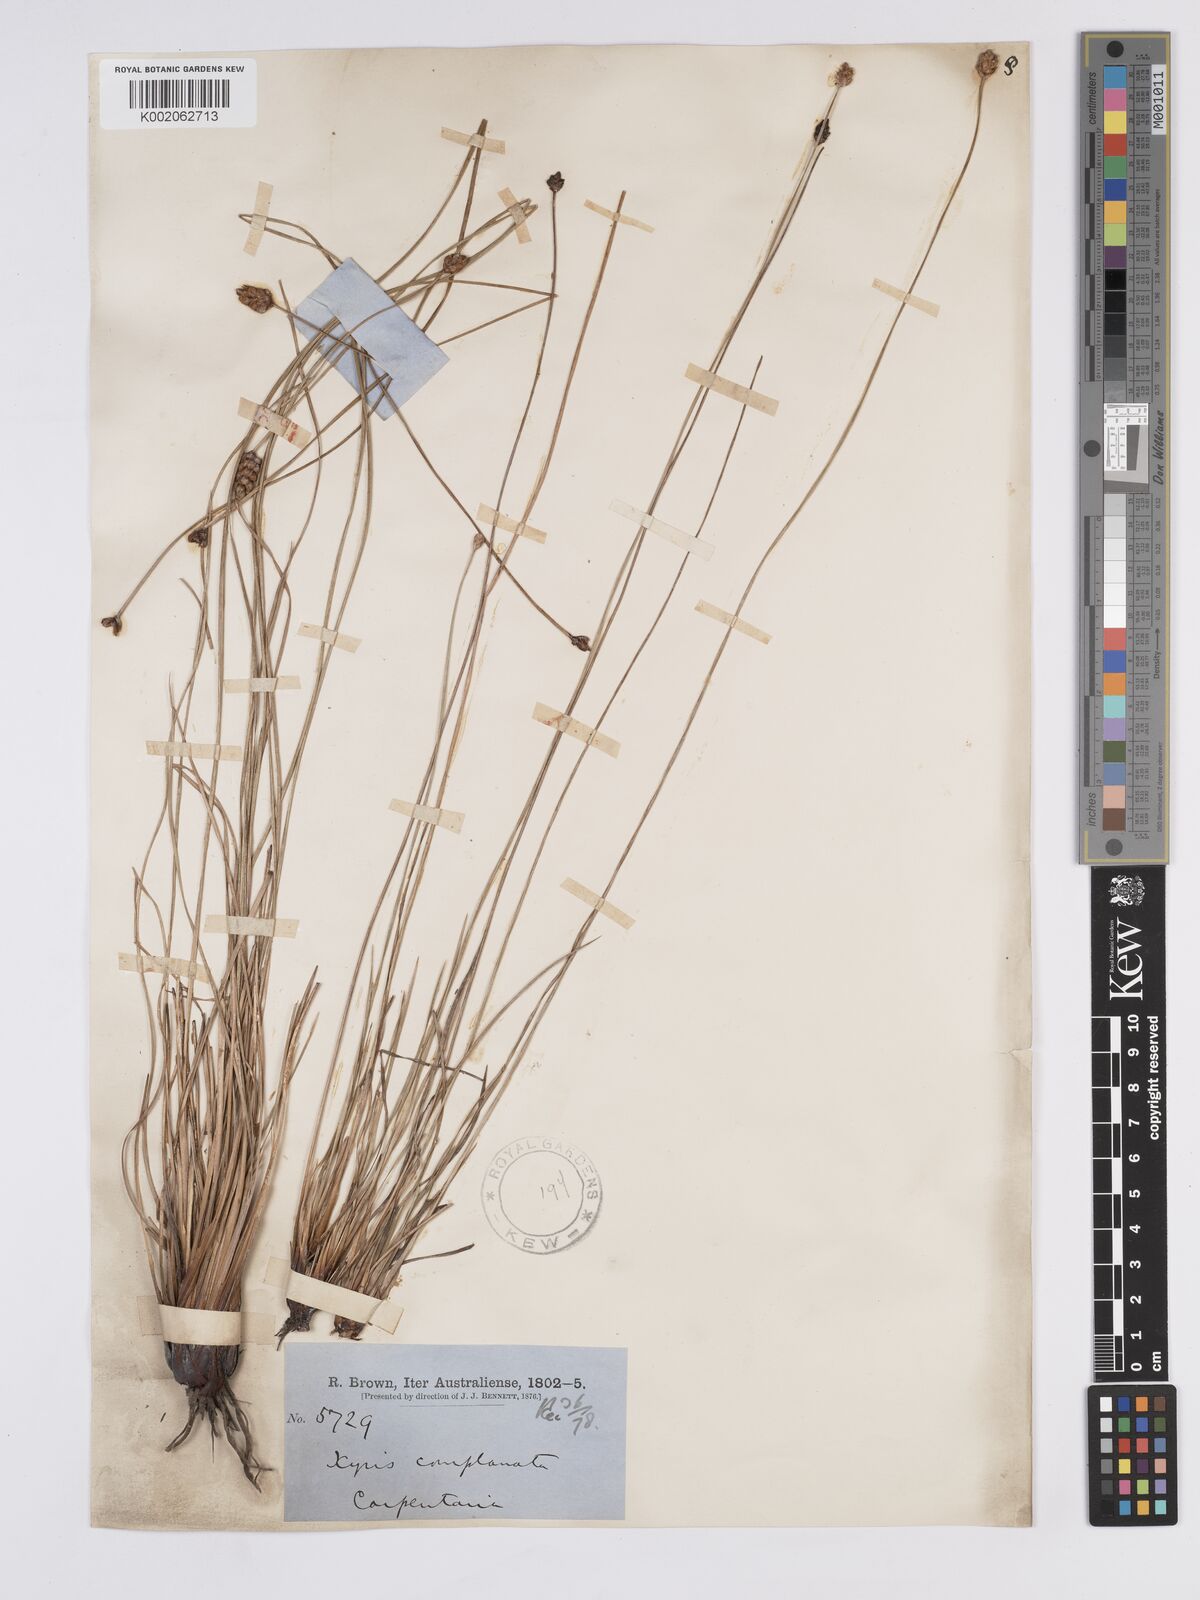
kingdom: Plantae
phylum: Tracheophyta
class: Liliopsida
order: Poales
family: Xyridaceae
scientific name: Xyridaceae
